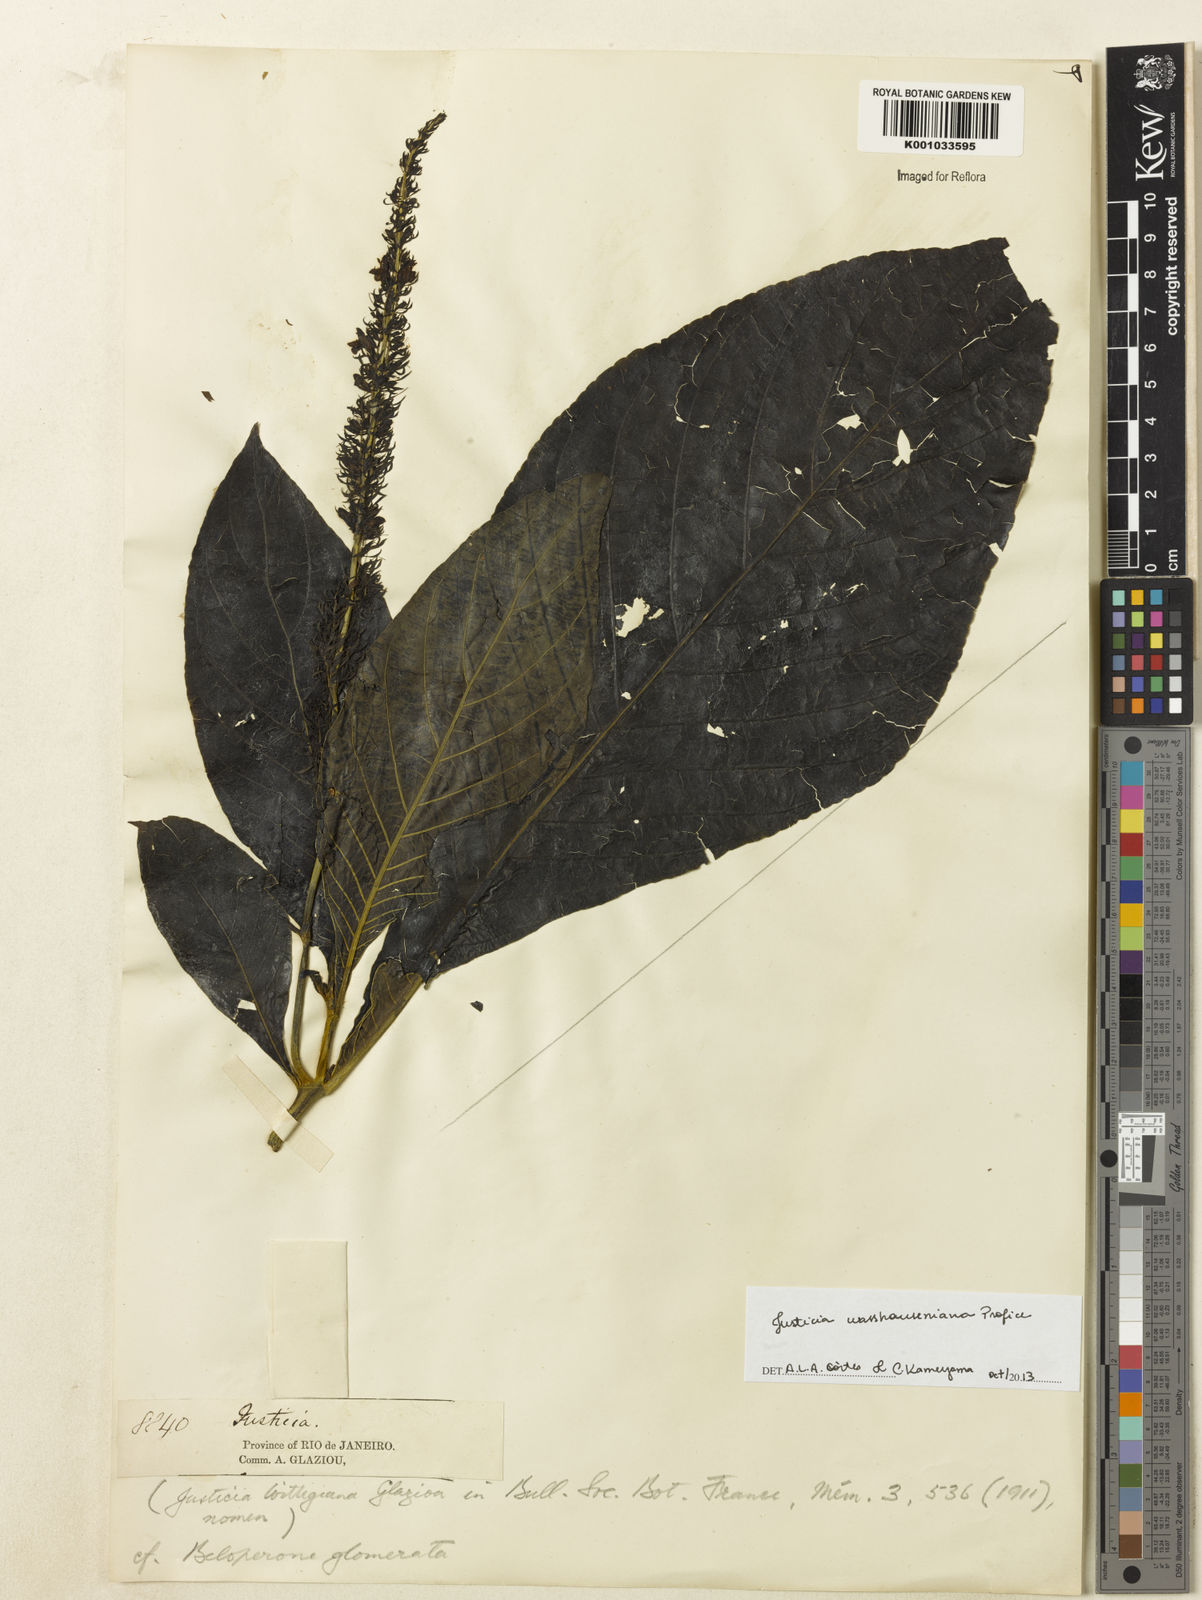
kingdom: Plantae
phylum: Tracheophyta
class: Magnoliopsida
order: Lamiales
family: Acanthaceae
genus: Justicia
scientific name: Justicia wasshauseniana
